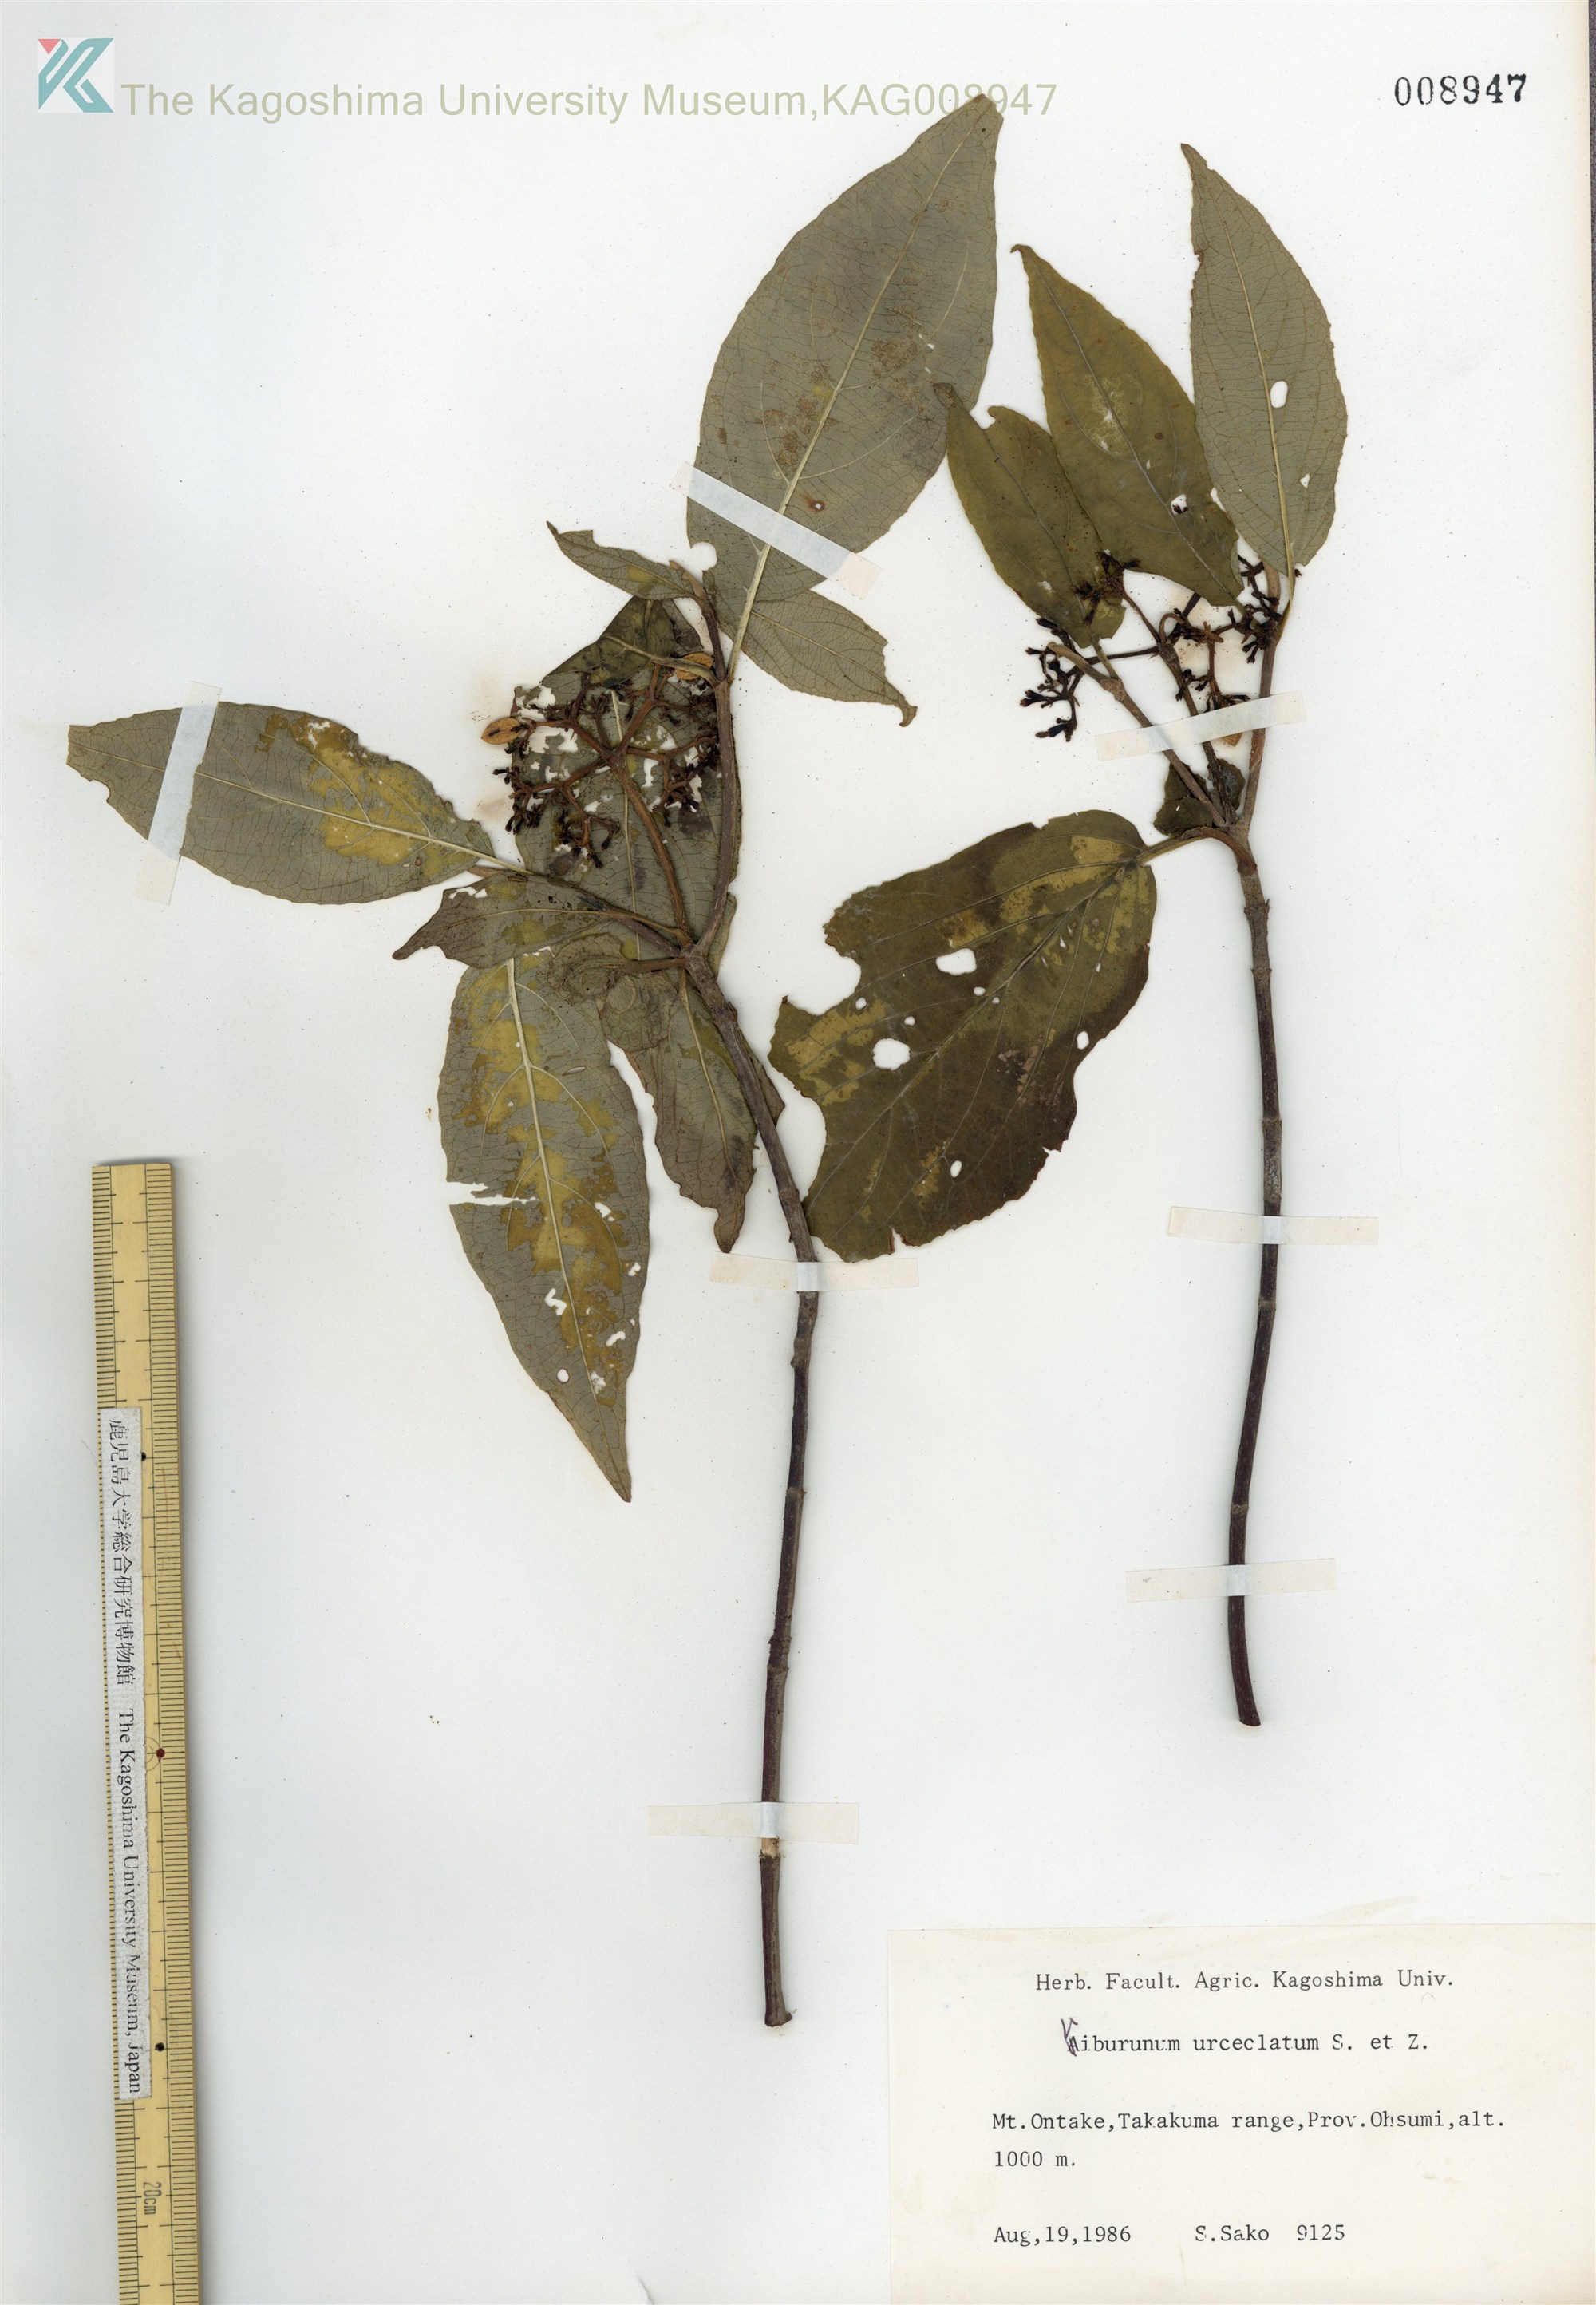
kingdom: Plantae
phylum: Tracheophyta
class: Magnoliopsida
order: Dipsacales
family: Viburnaceae
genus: Viburnum
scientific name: Viburnum urceolatum
